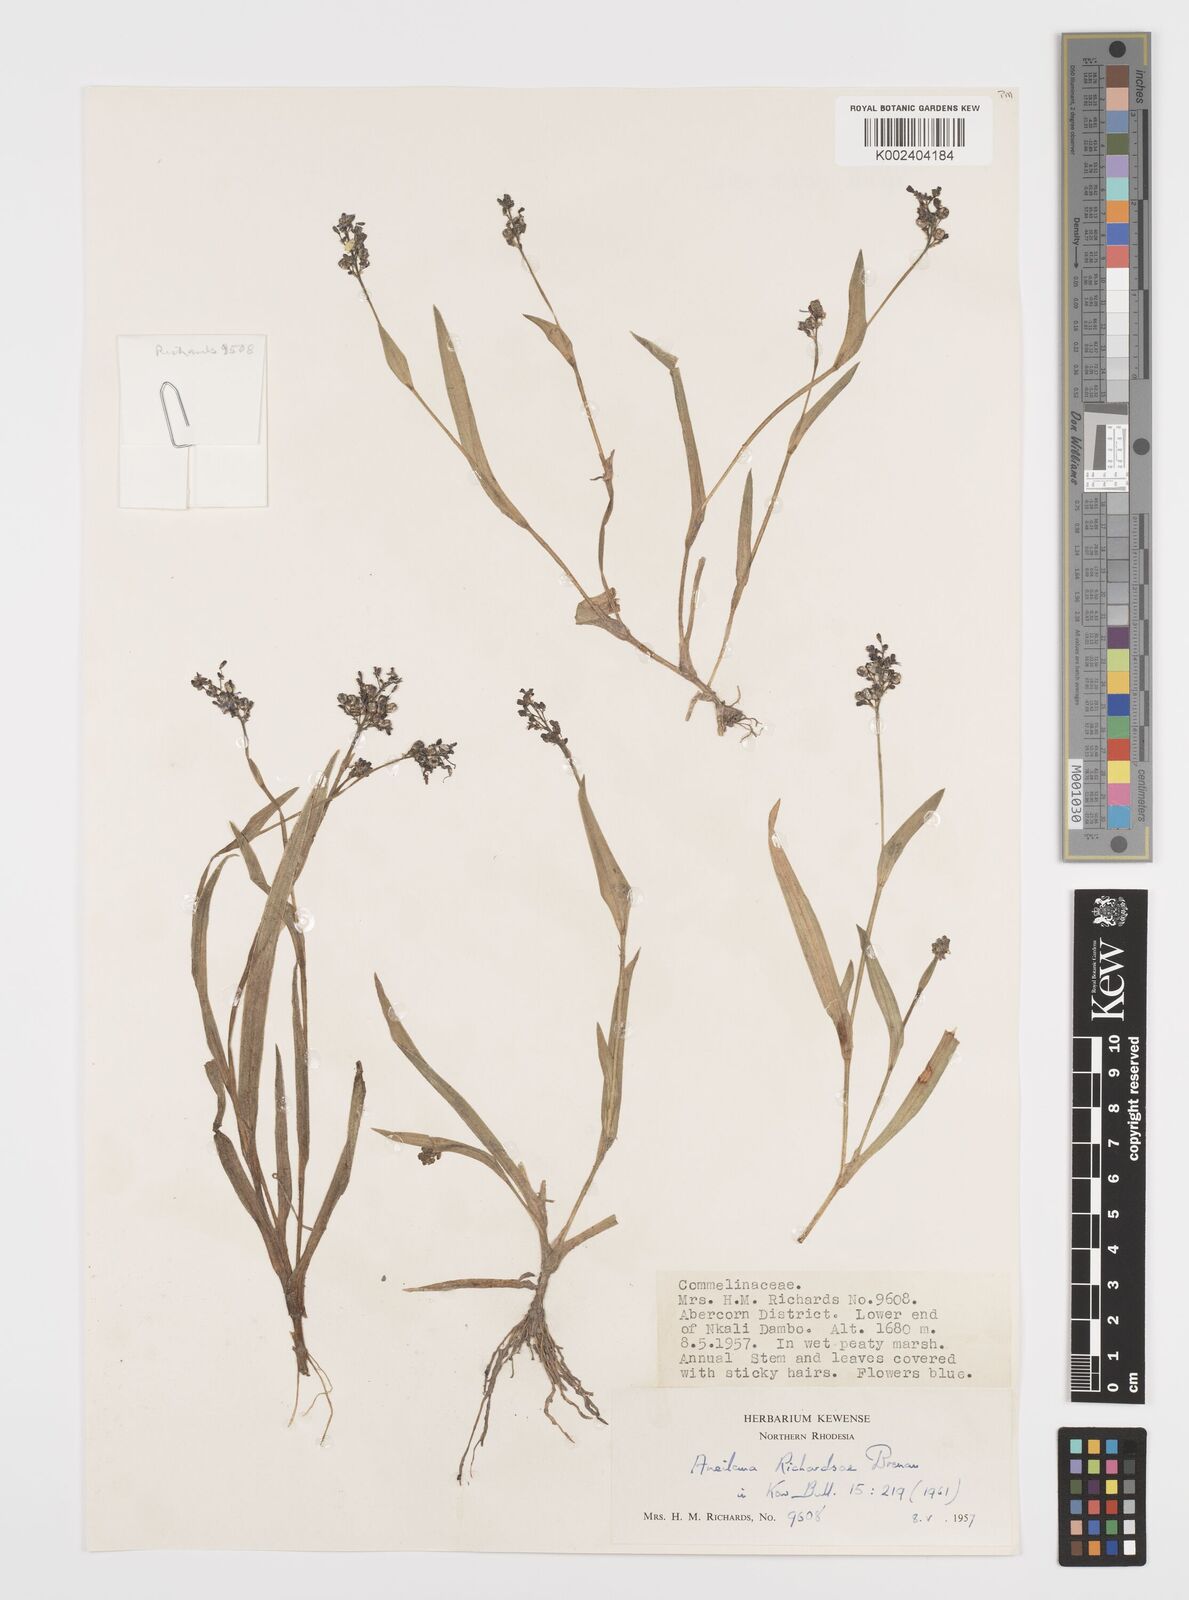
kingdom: Plantae
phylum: Tracheophyta
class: Liliopsida
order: Commelinales
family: Commelinaceae
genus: Aneilema
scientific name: Aneilema richardsiae
